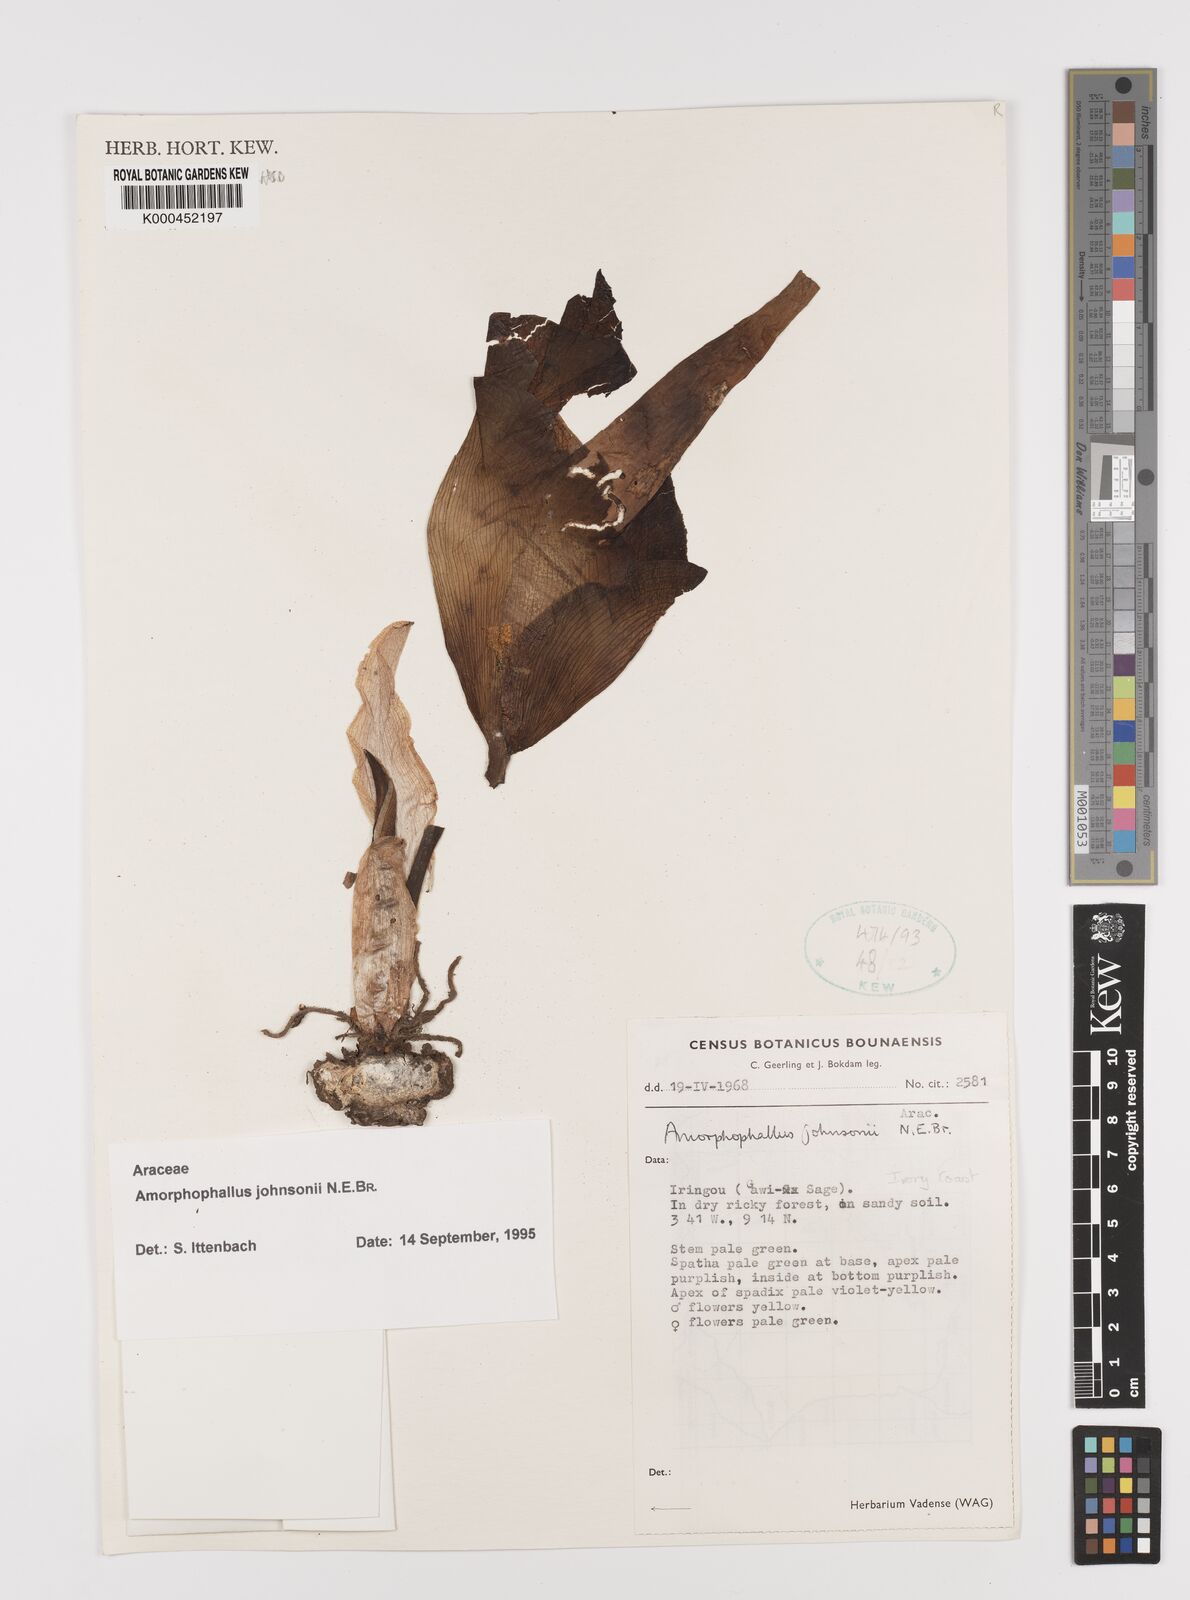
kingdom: Plantae
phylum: Tracheophyta
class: Liliopsida
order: Alismatales
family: Araceae
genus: Amorphophallus
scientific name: Amorphophallus johnsonii
